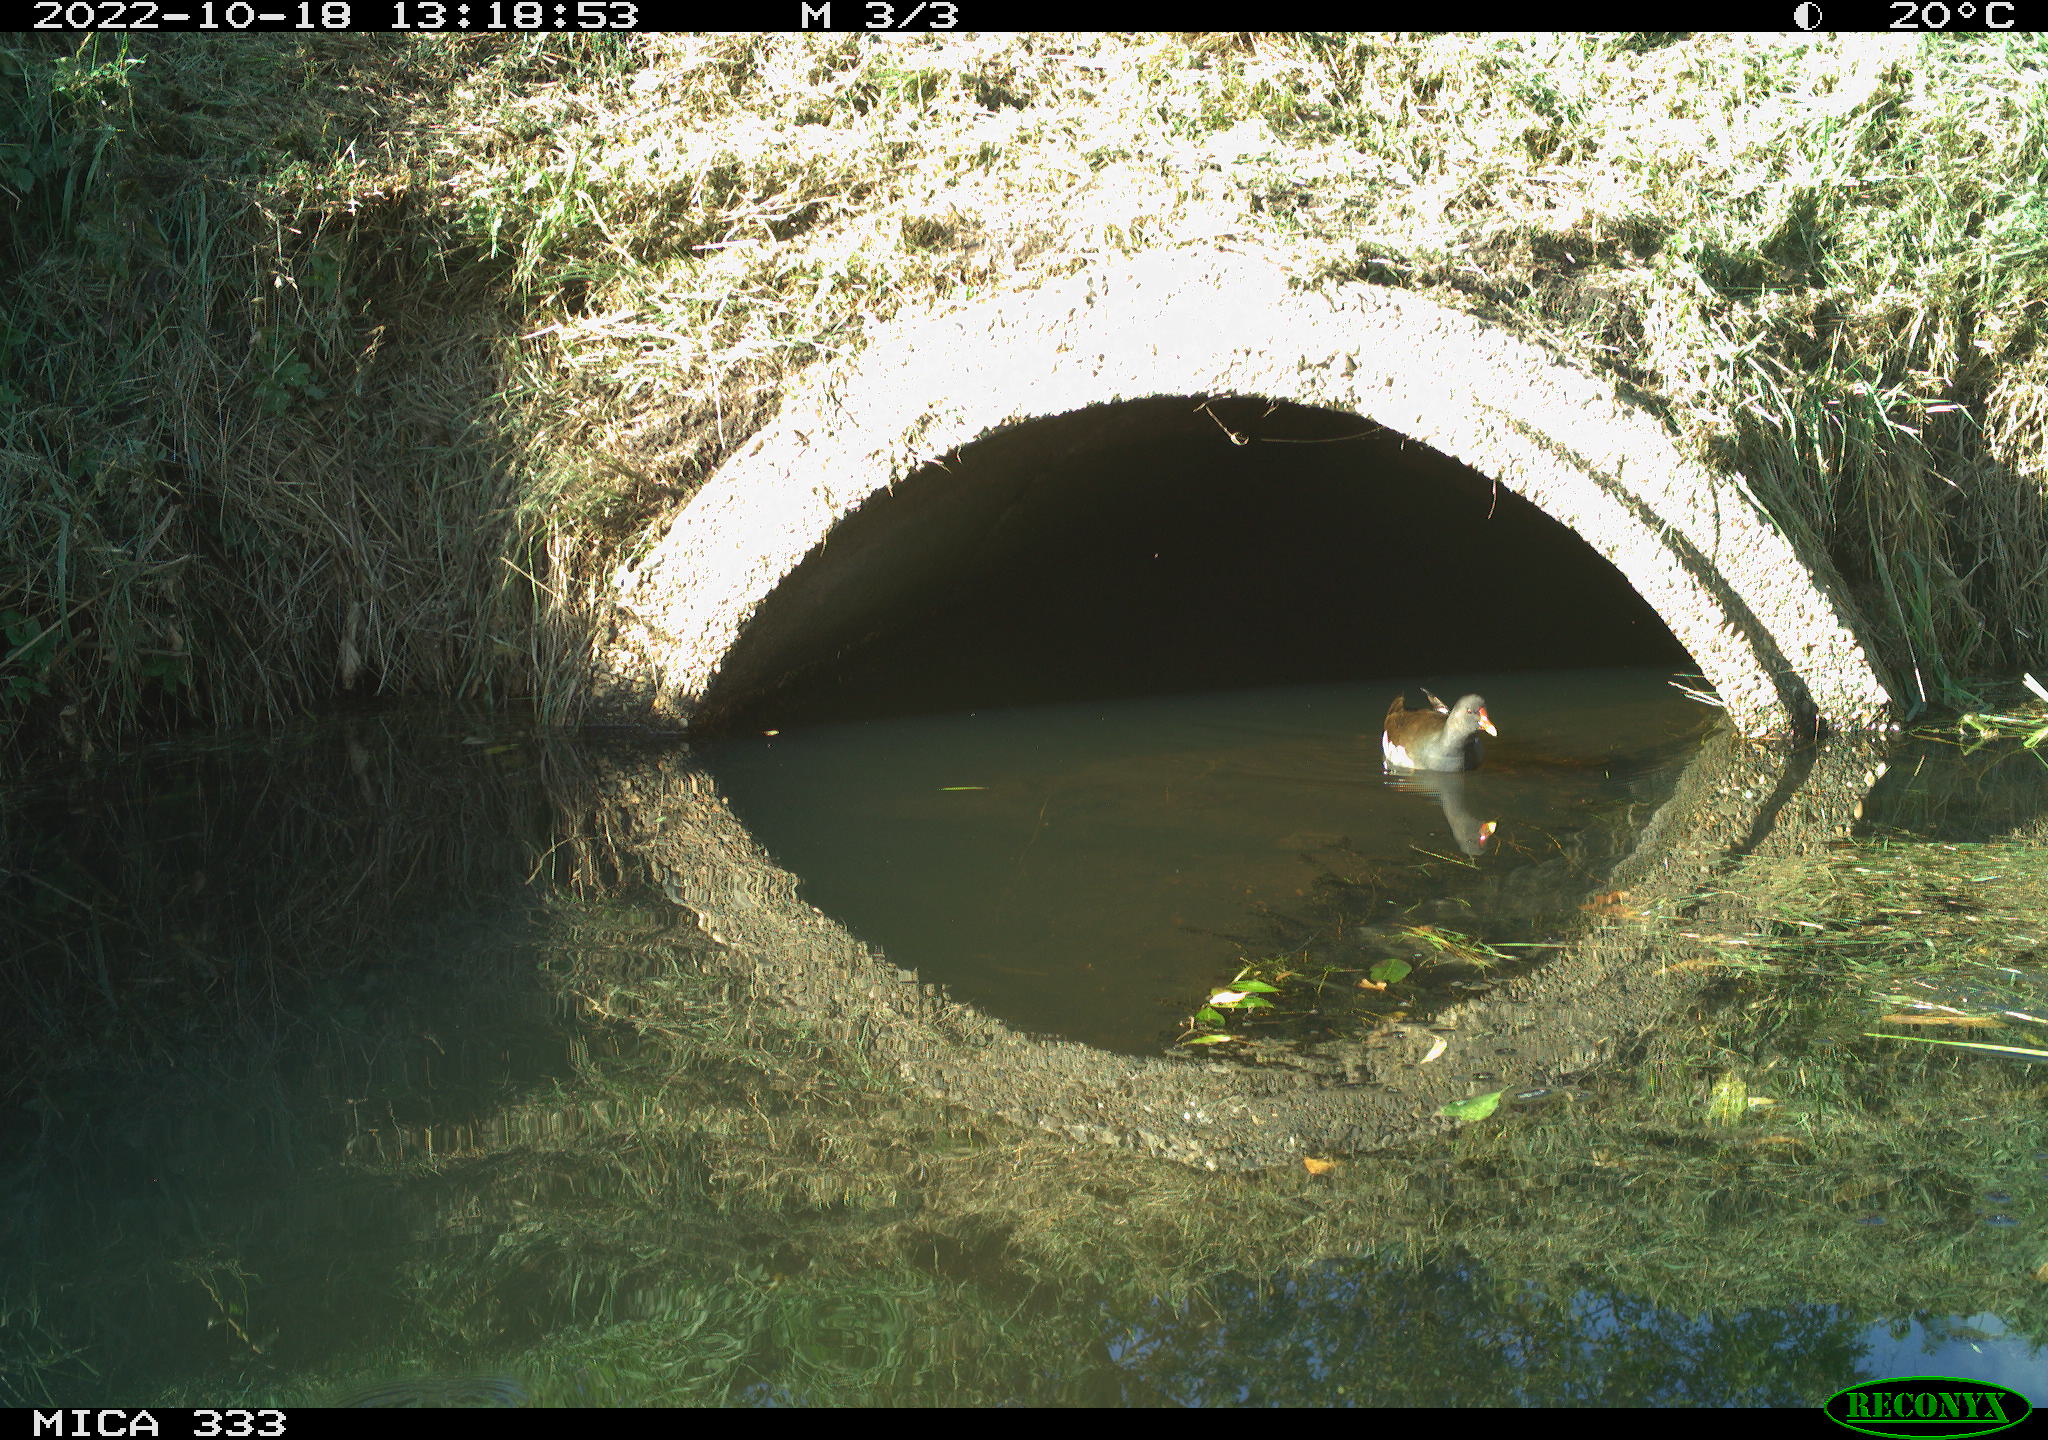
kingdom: Animalia
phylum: Chordata
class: Aves
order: Gruiformes
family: Rallidae
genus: Gallinula
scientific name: Gallinula chloropus
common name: Common moorhen
